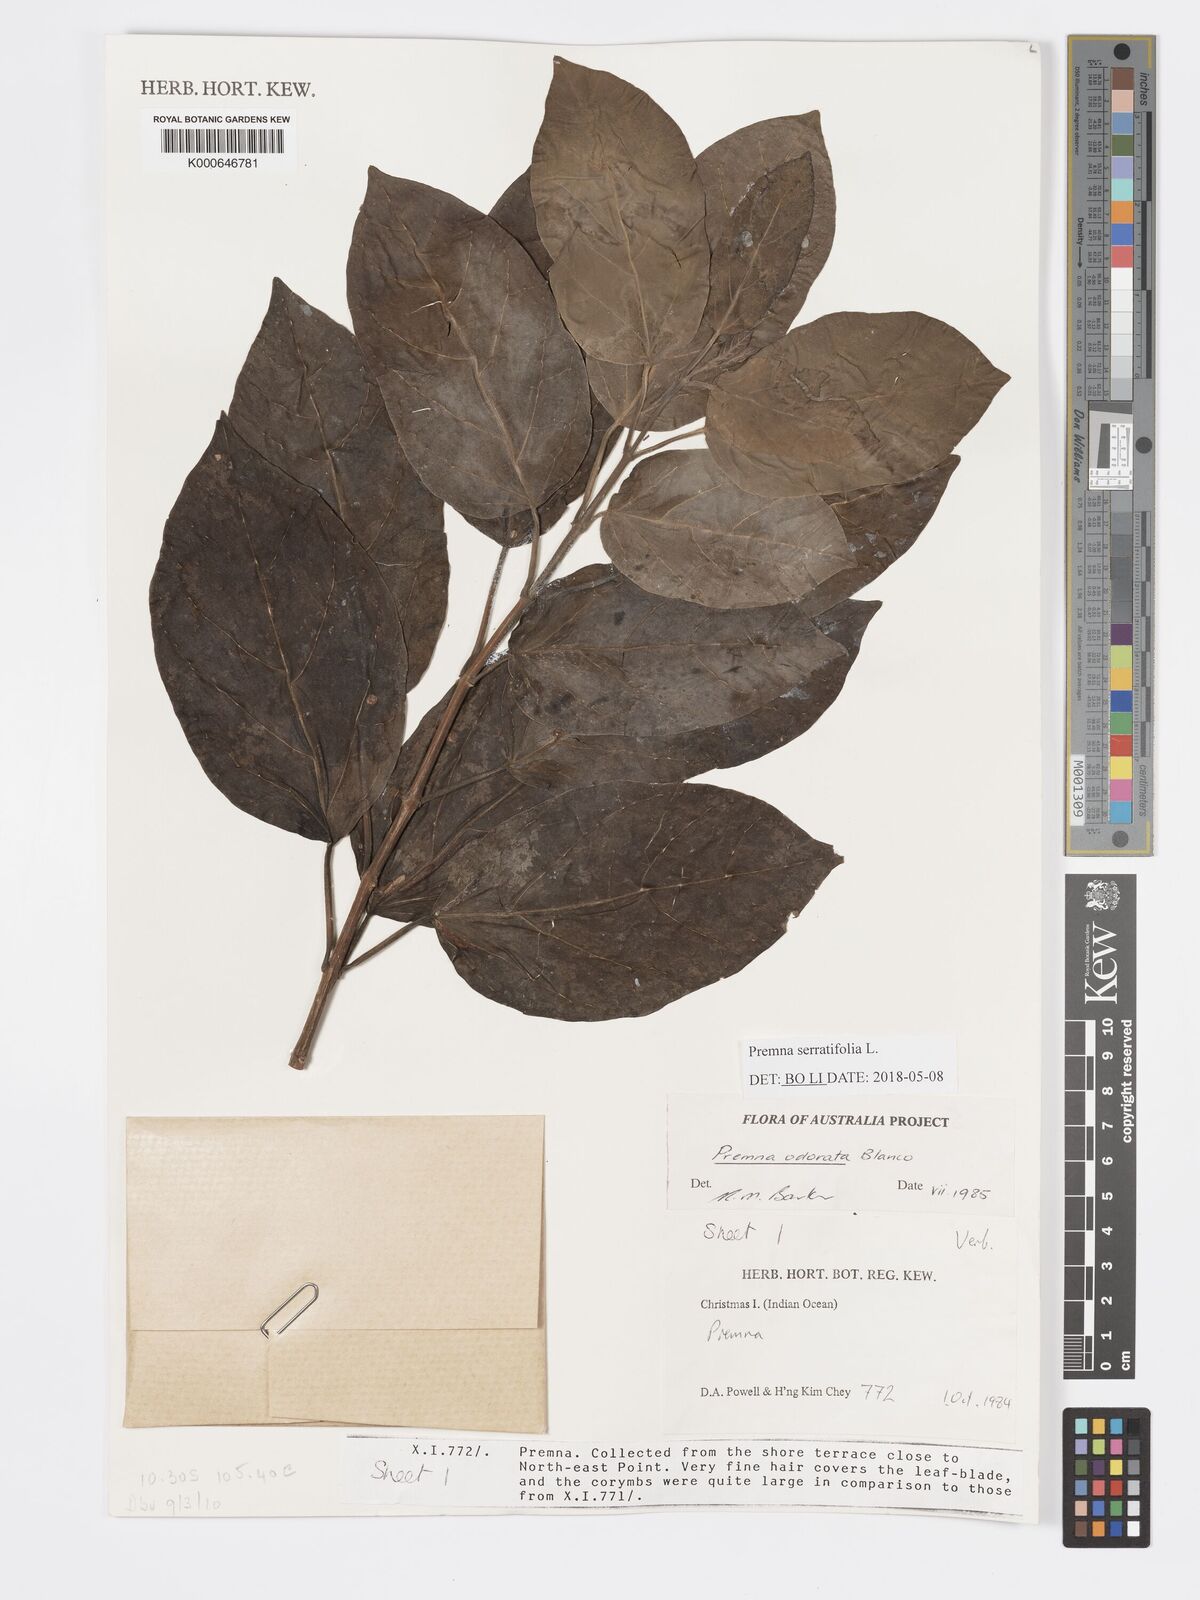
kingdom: Plantae
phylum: Tracheophyta
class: Magnoliopsida
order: Lamiales
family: Lamiaceae
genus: Premna
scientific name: Premna odorata
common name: Fragrant premna
